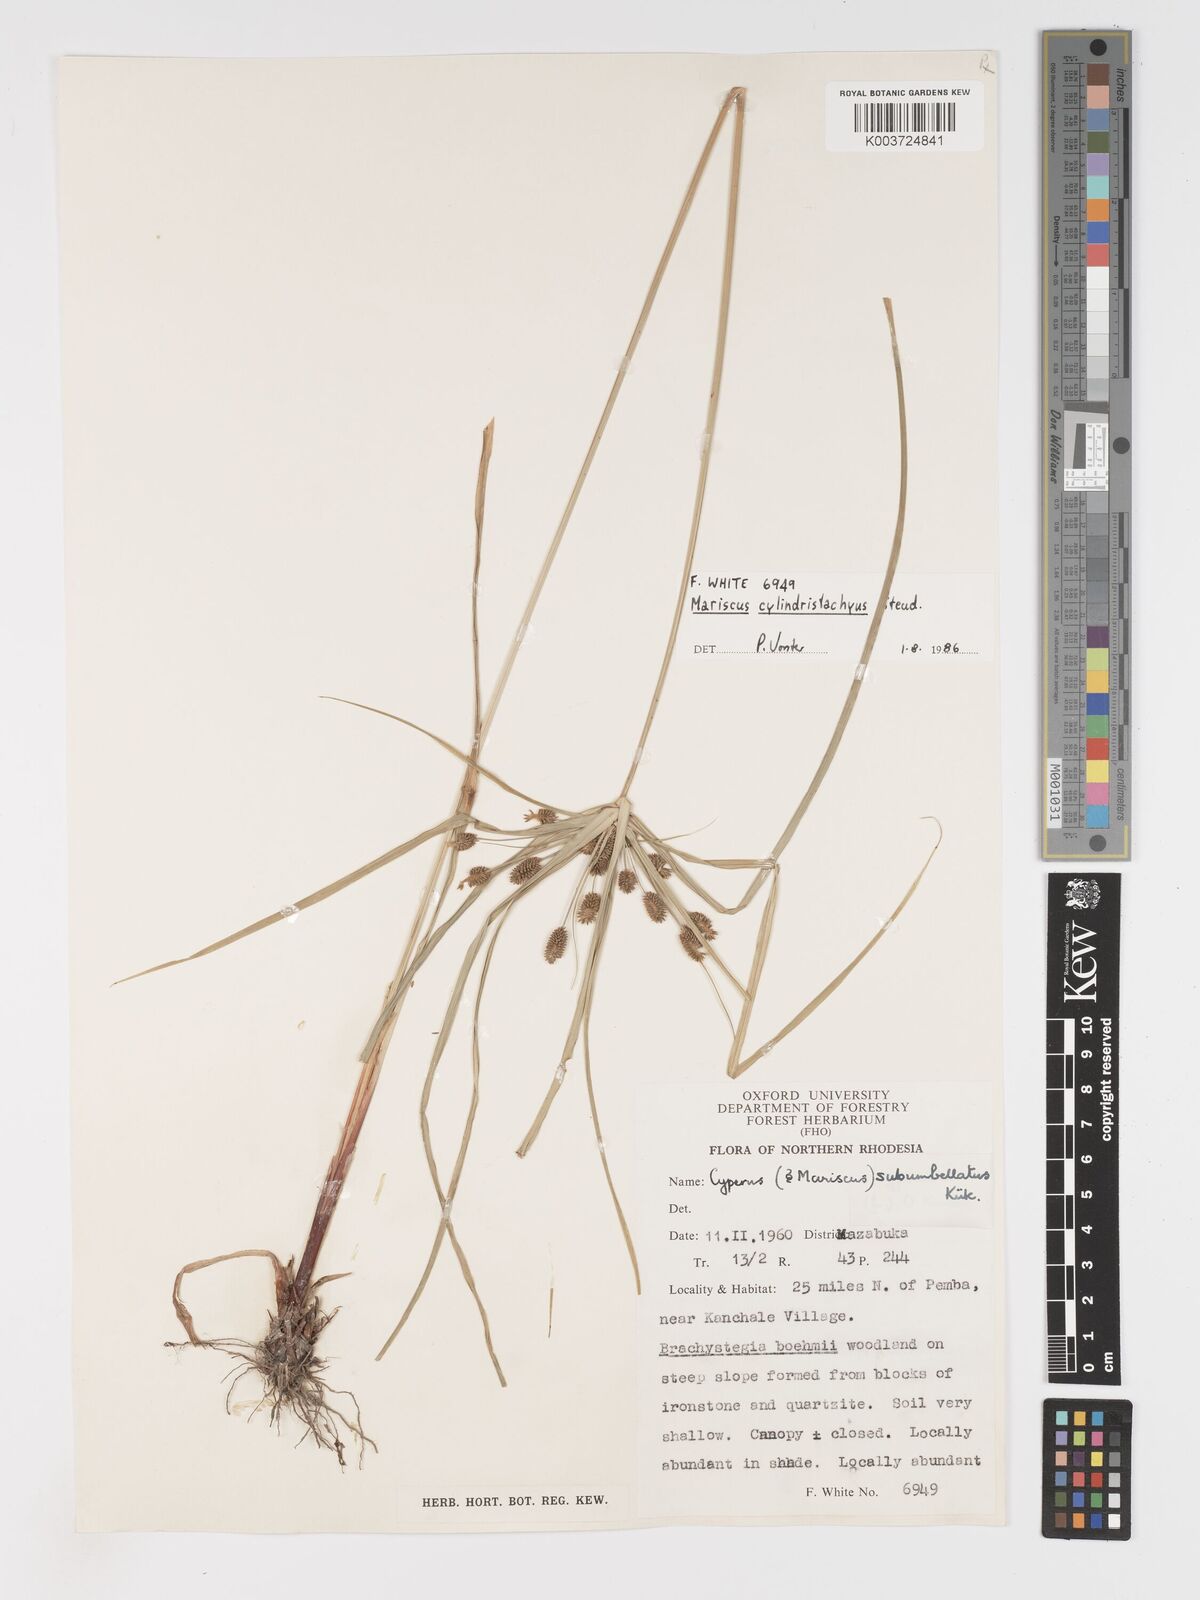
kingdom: Plantae
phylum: Tracheophyta
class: Liliopsida
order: Poales
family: Cyperaceae
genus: Cyperus
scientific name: Cyperus cyperoides
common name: Pacific island flat sedge
